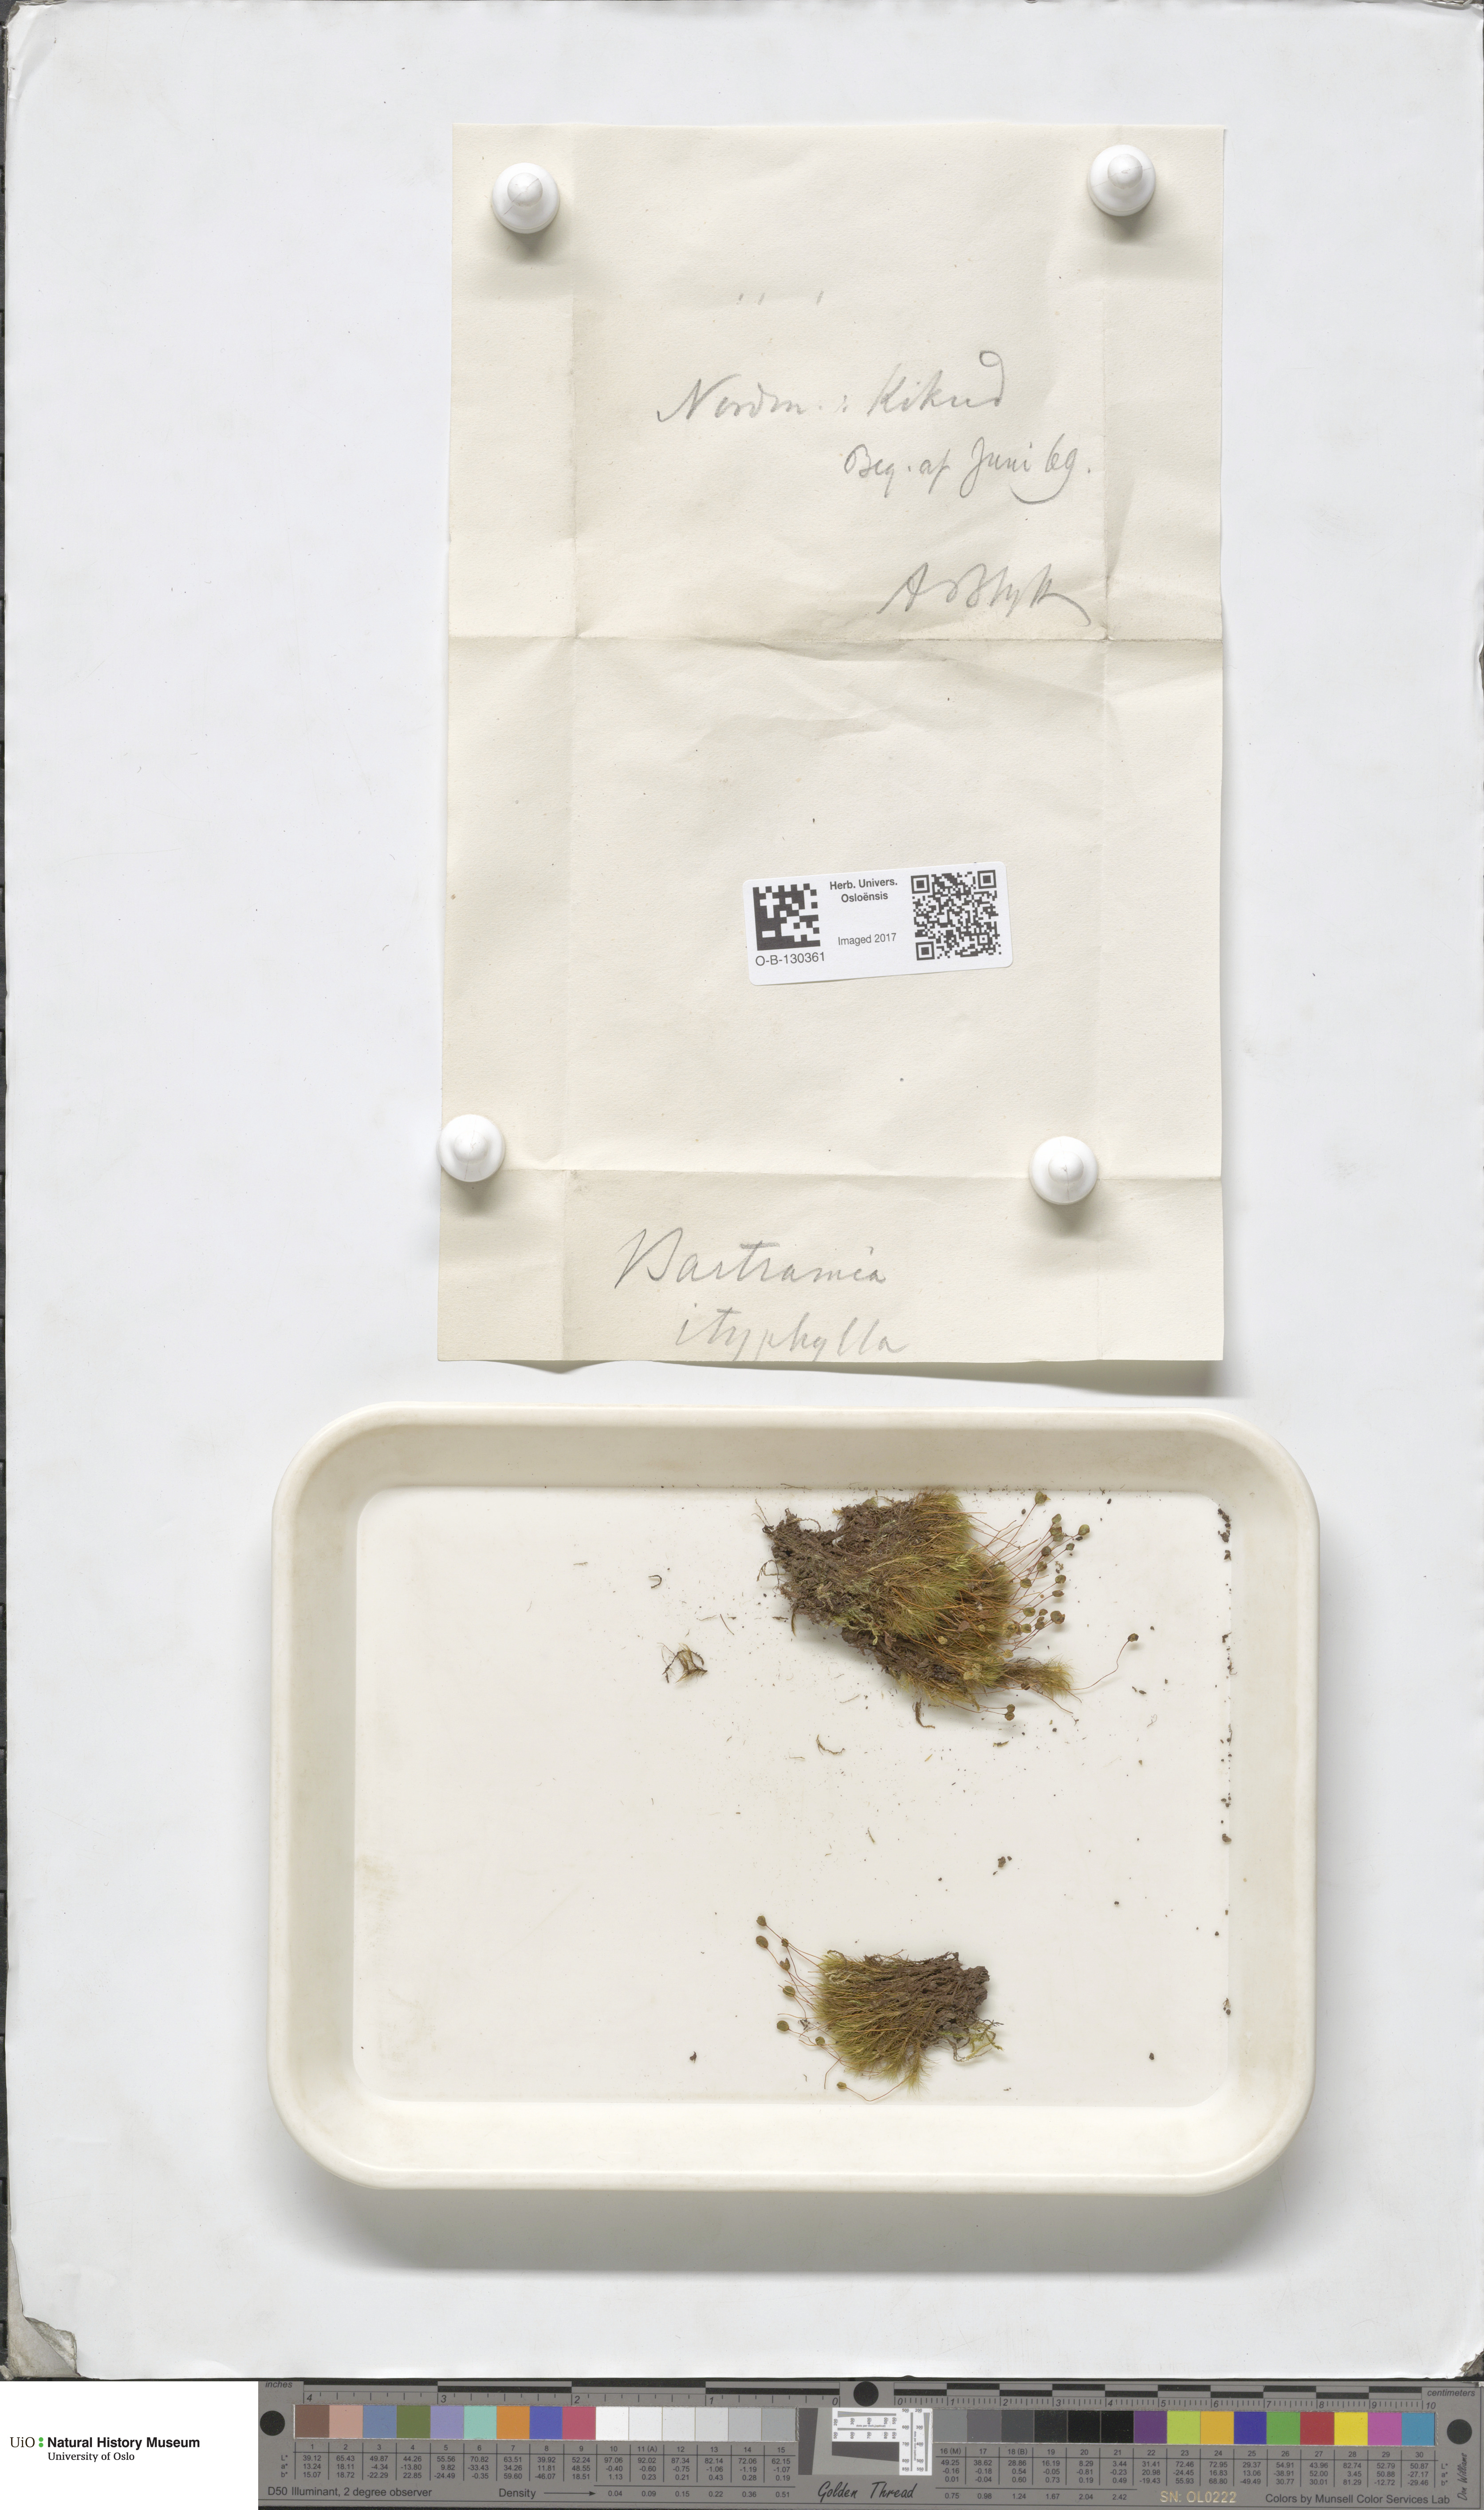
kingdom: Plantae
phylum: Bryophyta
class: Bryopsida
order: Bartramiales
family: Bartramiaceae
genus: Bartramia
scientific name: Bartramia ithyphylla
